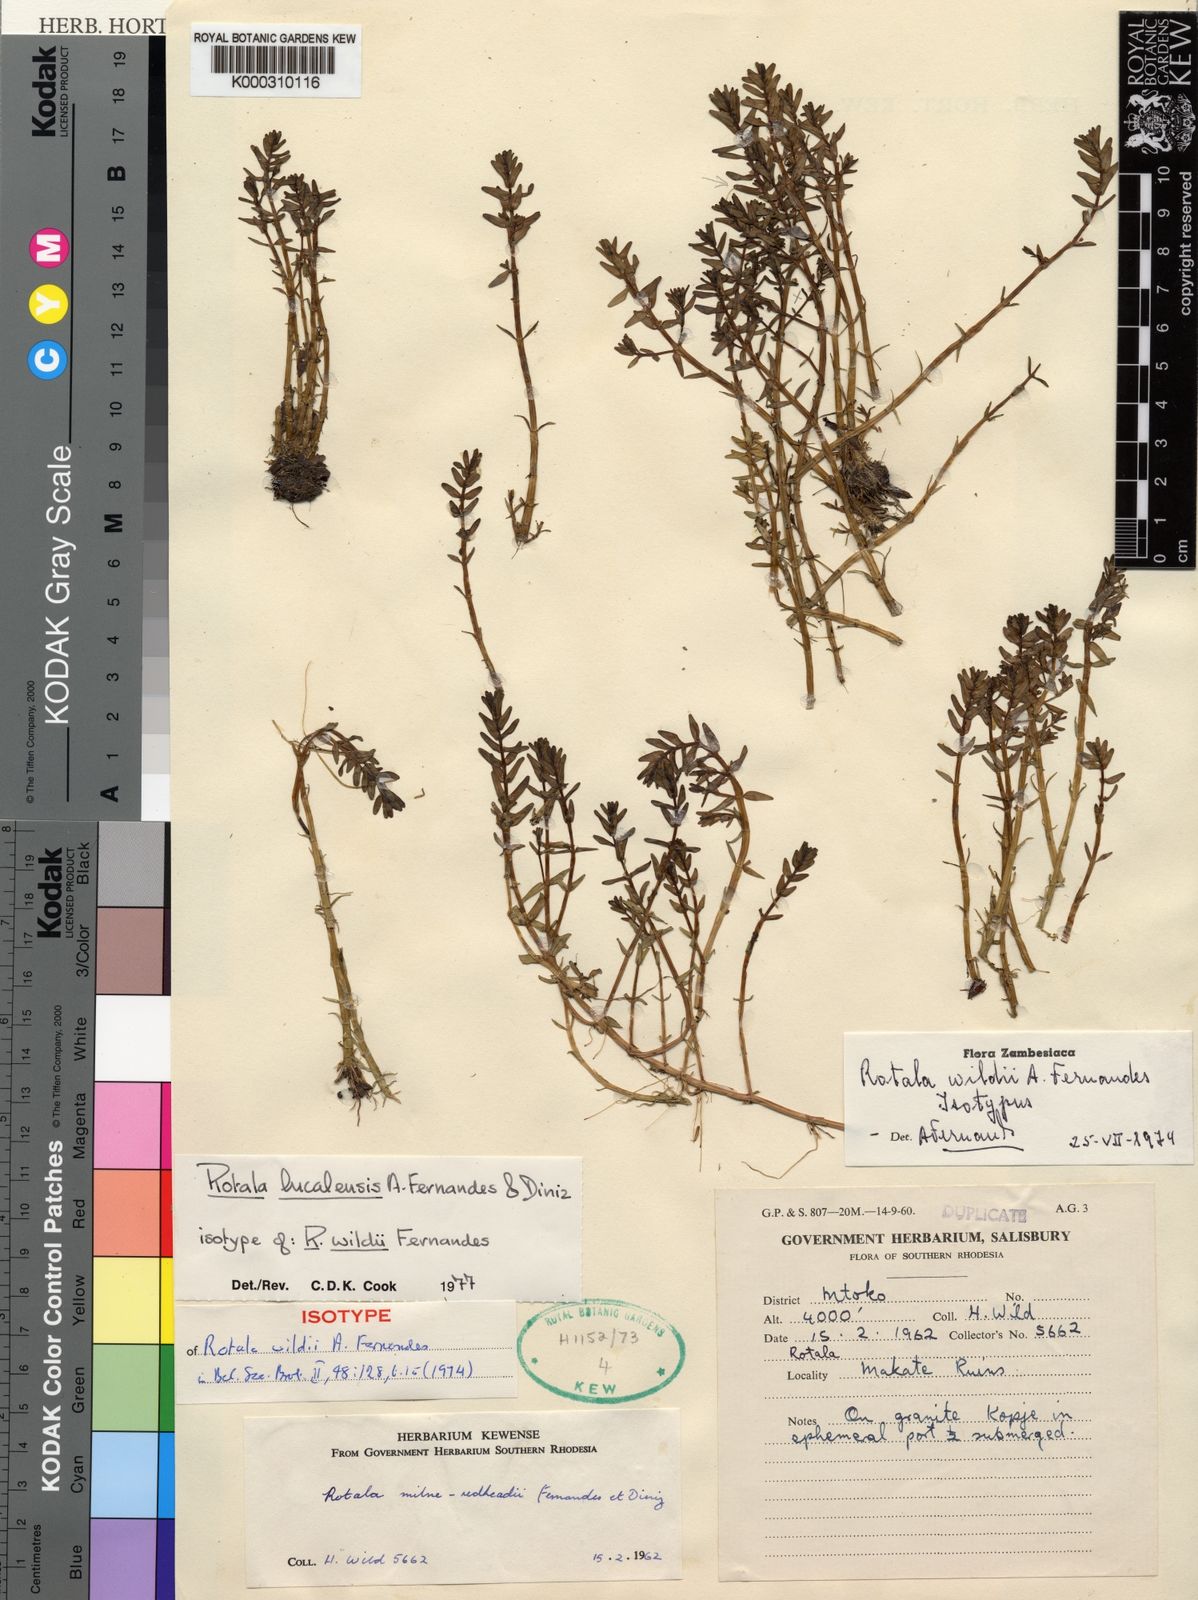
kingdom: Plantae
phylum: Tracheophyta
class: Magnoliopsida
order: Myrtales
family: Lythraceae
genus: Rotala
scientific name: Rotala lucalensis
